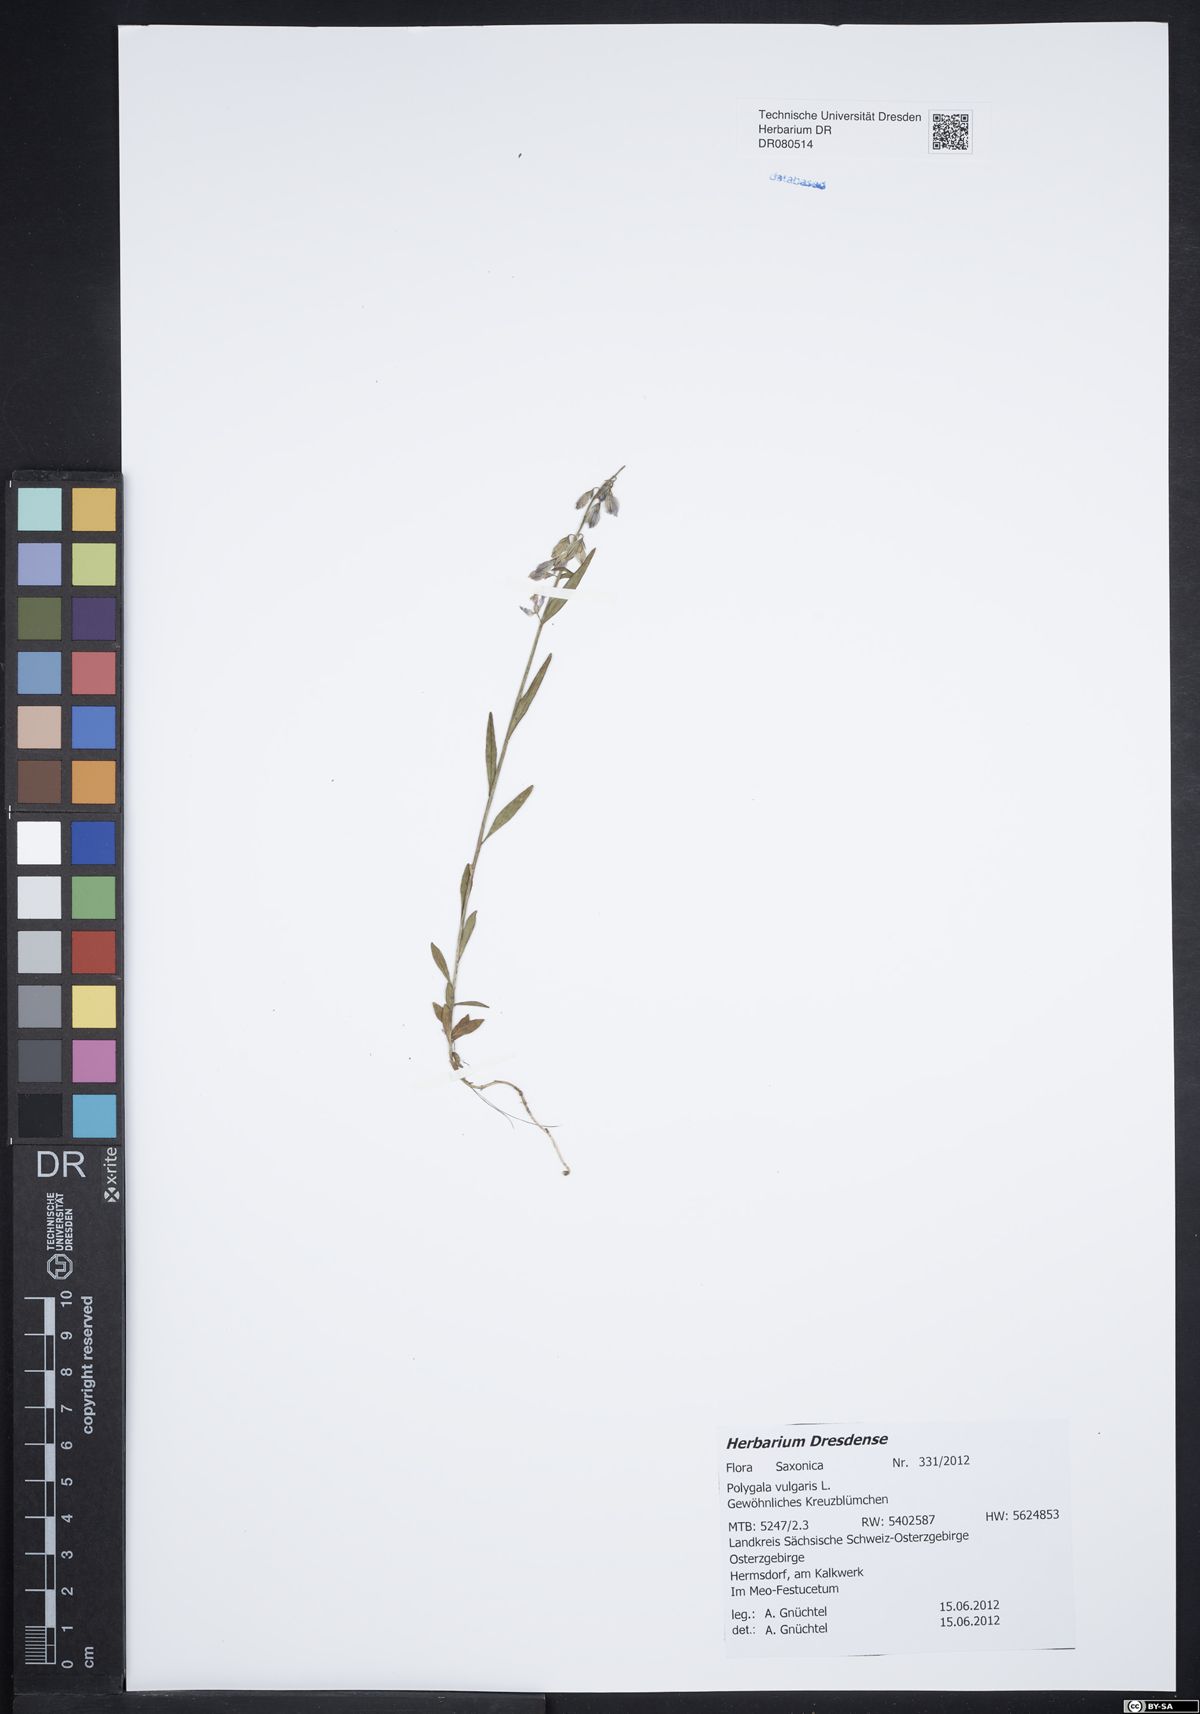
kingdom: Plantae
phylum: Tracheophyta
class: Magnoliopsida
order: Fabales
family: Polygalaceae
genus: Polygala
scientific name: Polygala vulgaris
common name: Common milkwort
